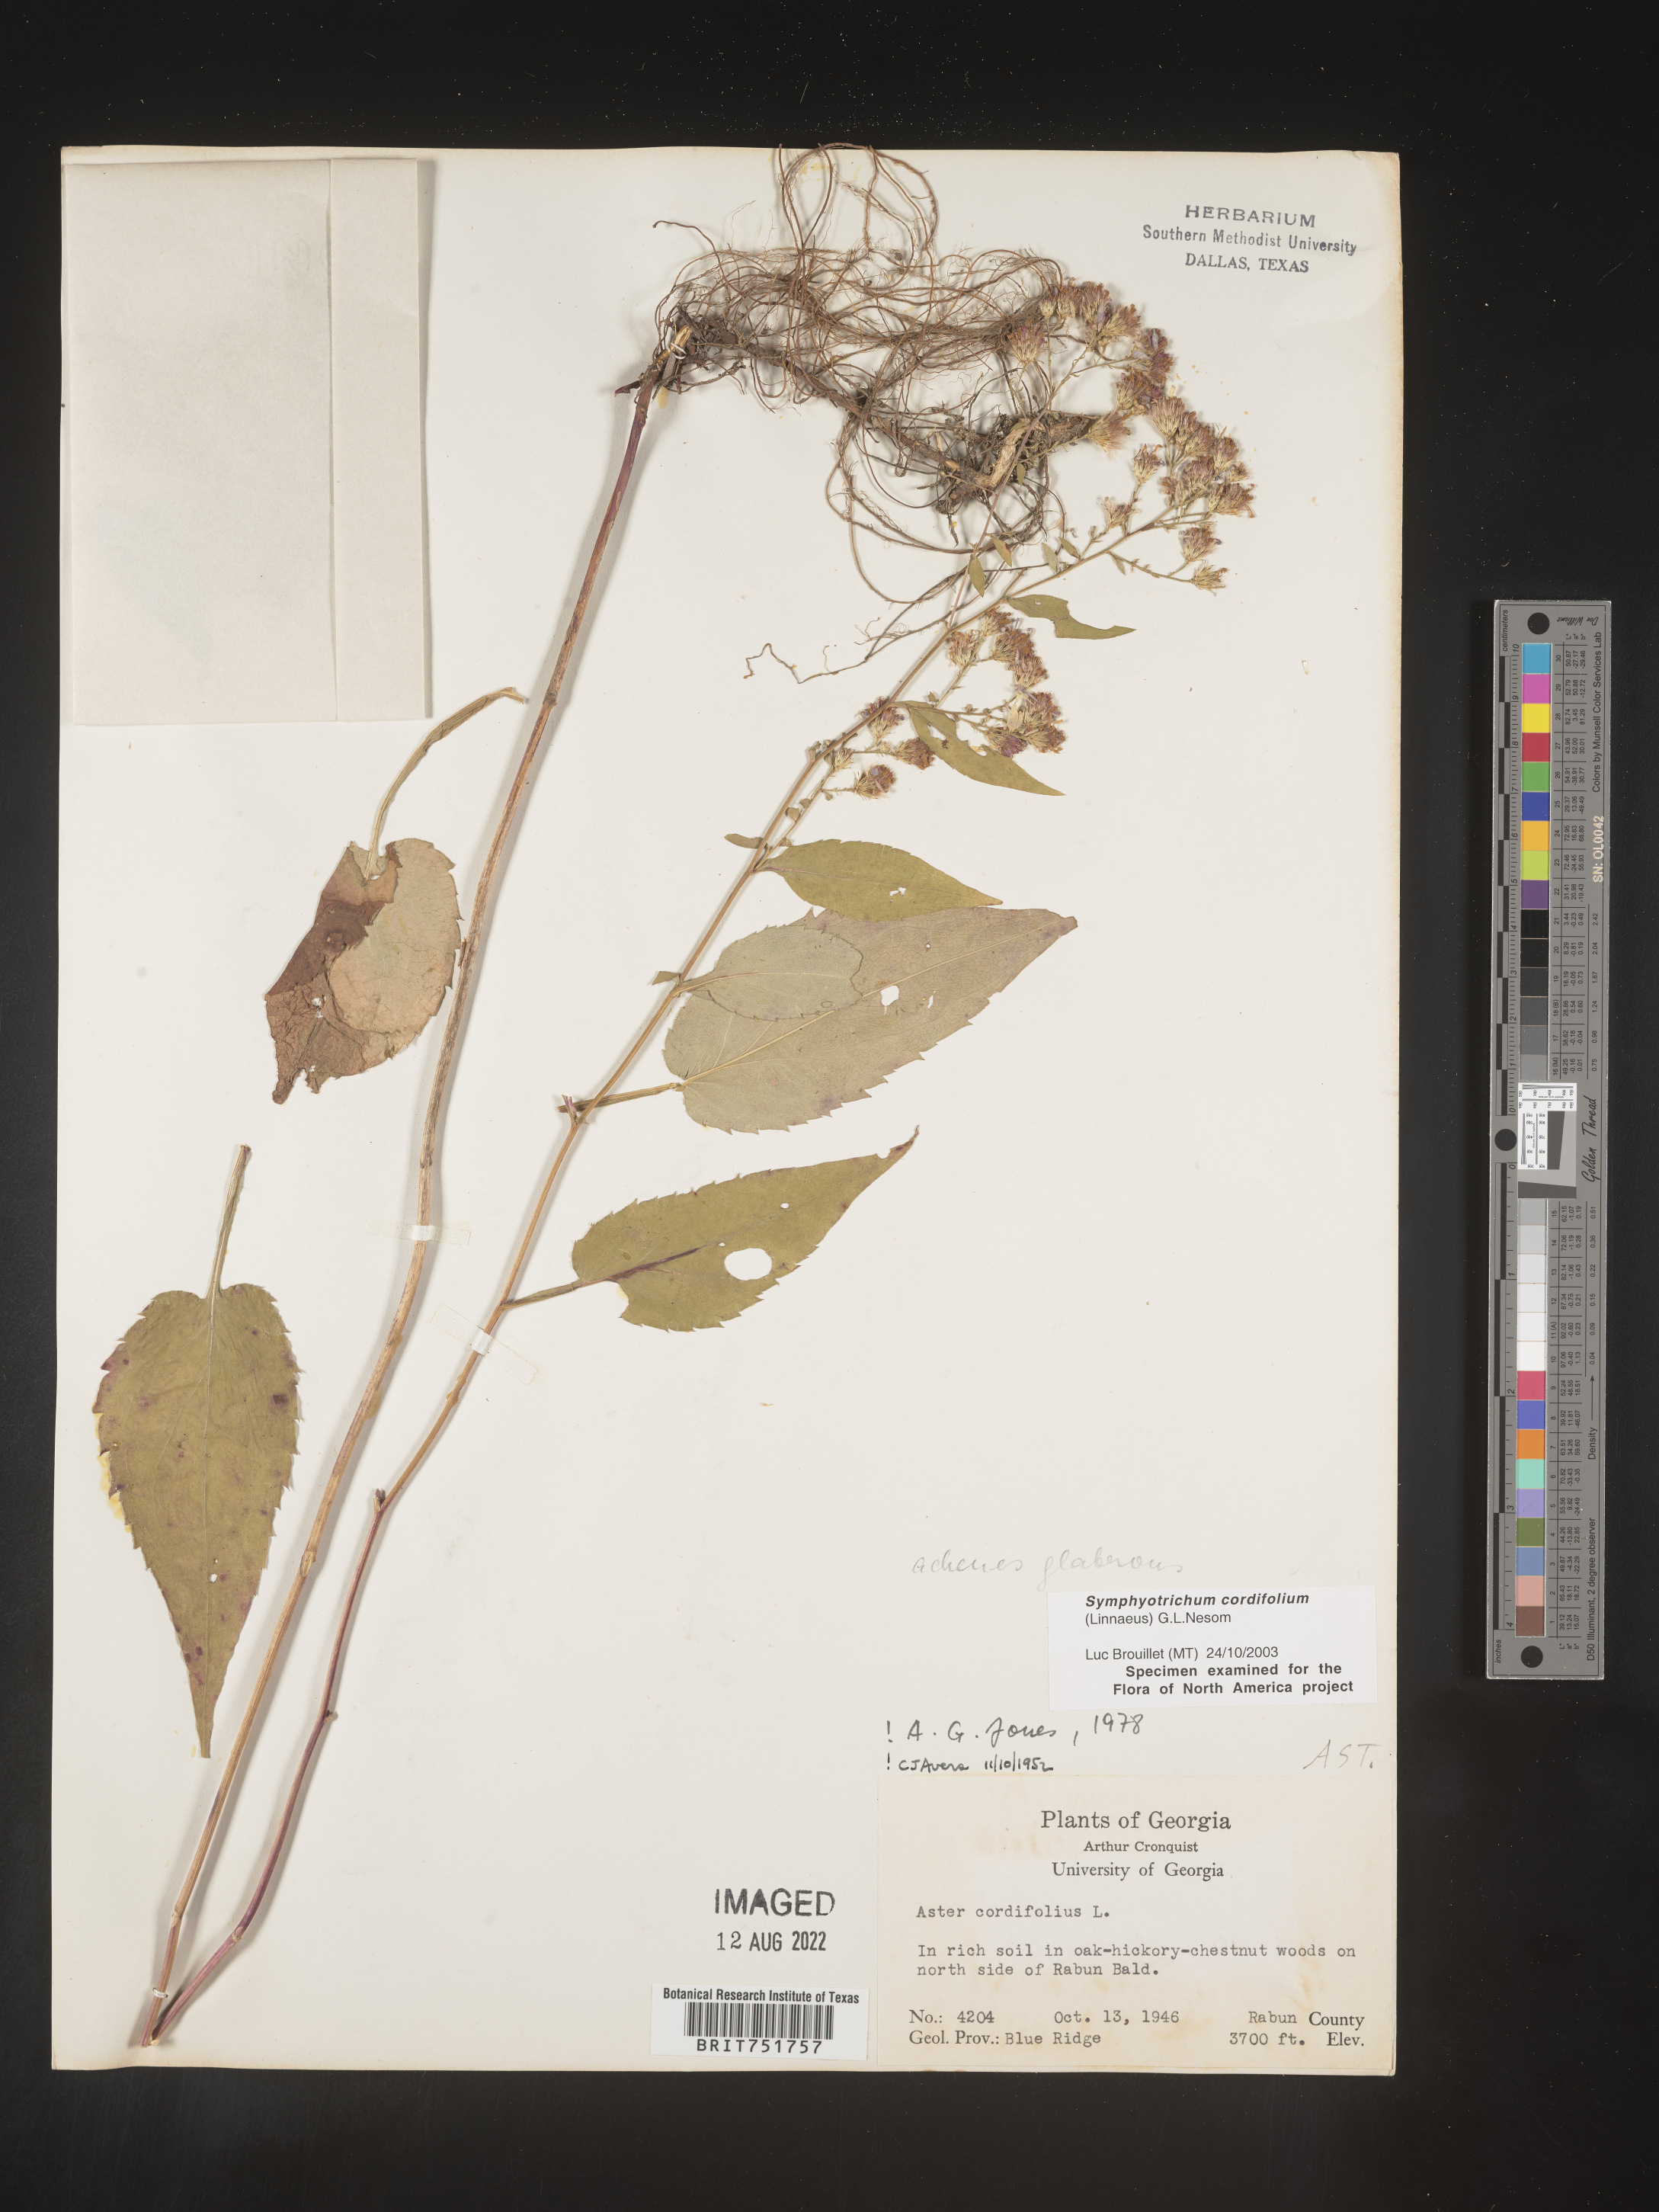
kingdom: Plantae
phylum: Tracheophyta
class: Magnoliopsida
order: Asterales
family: Asteraceae
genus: Symphyotrichum
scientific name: Symphyotrichum cordifolium
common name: Beeweed
